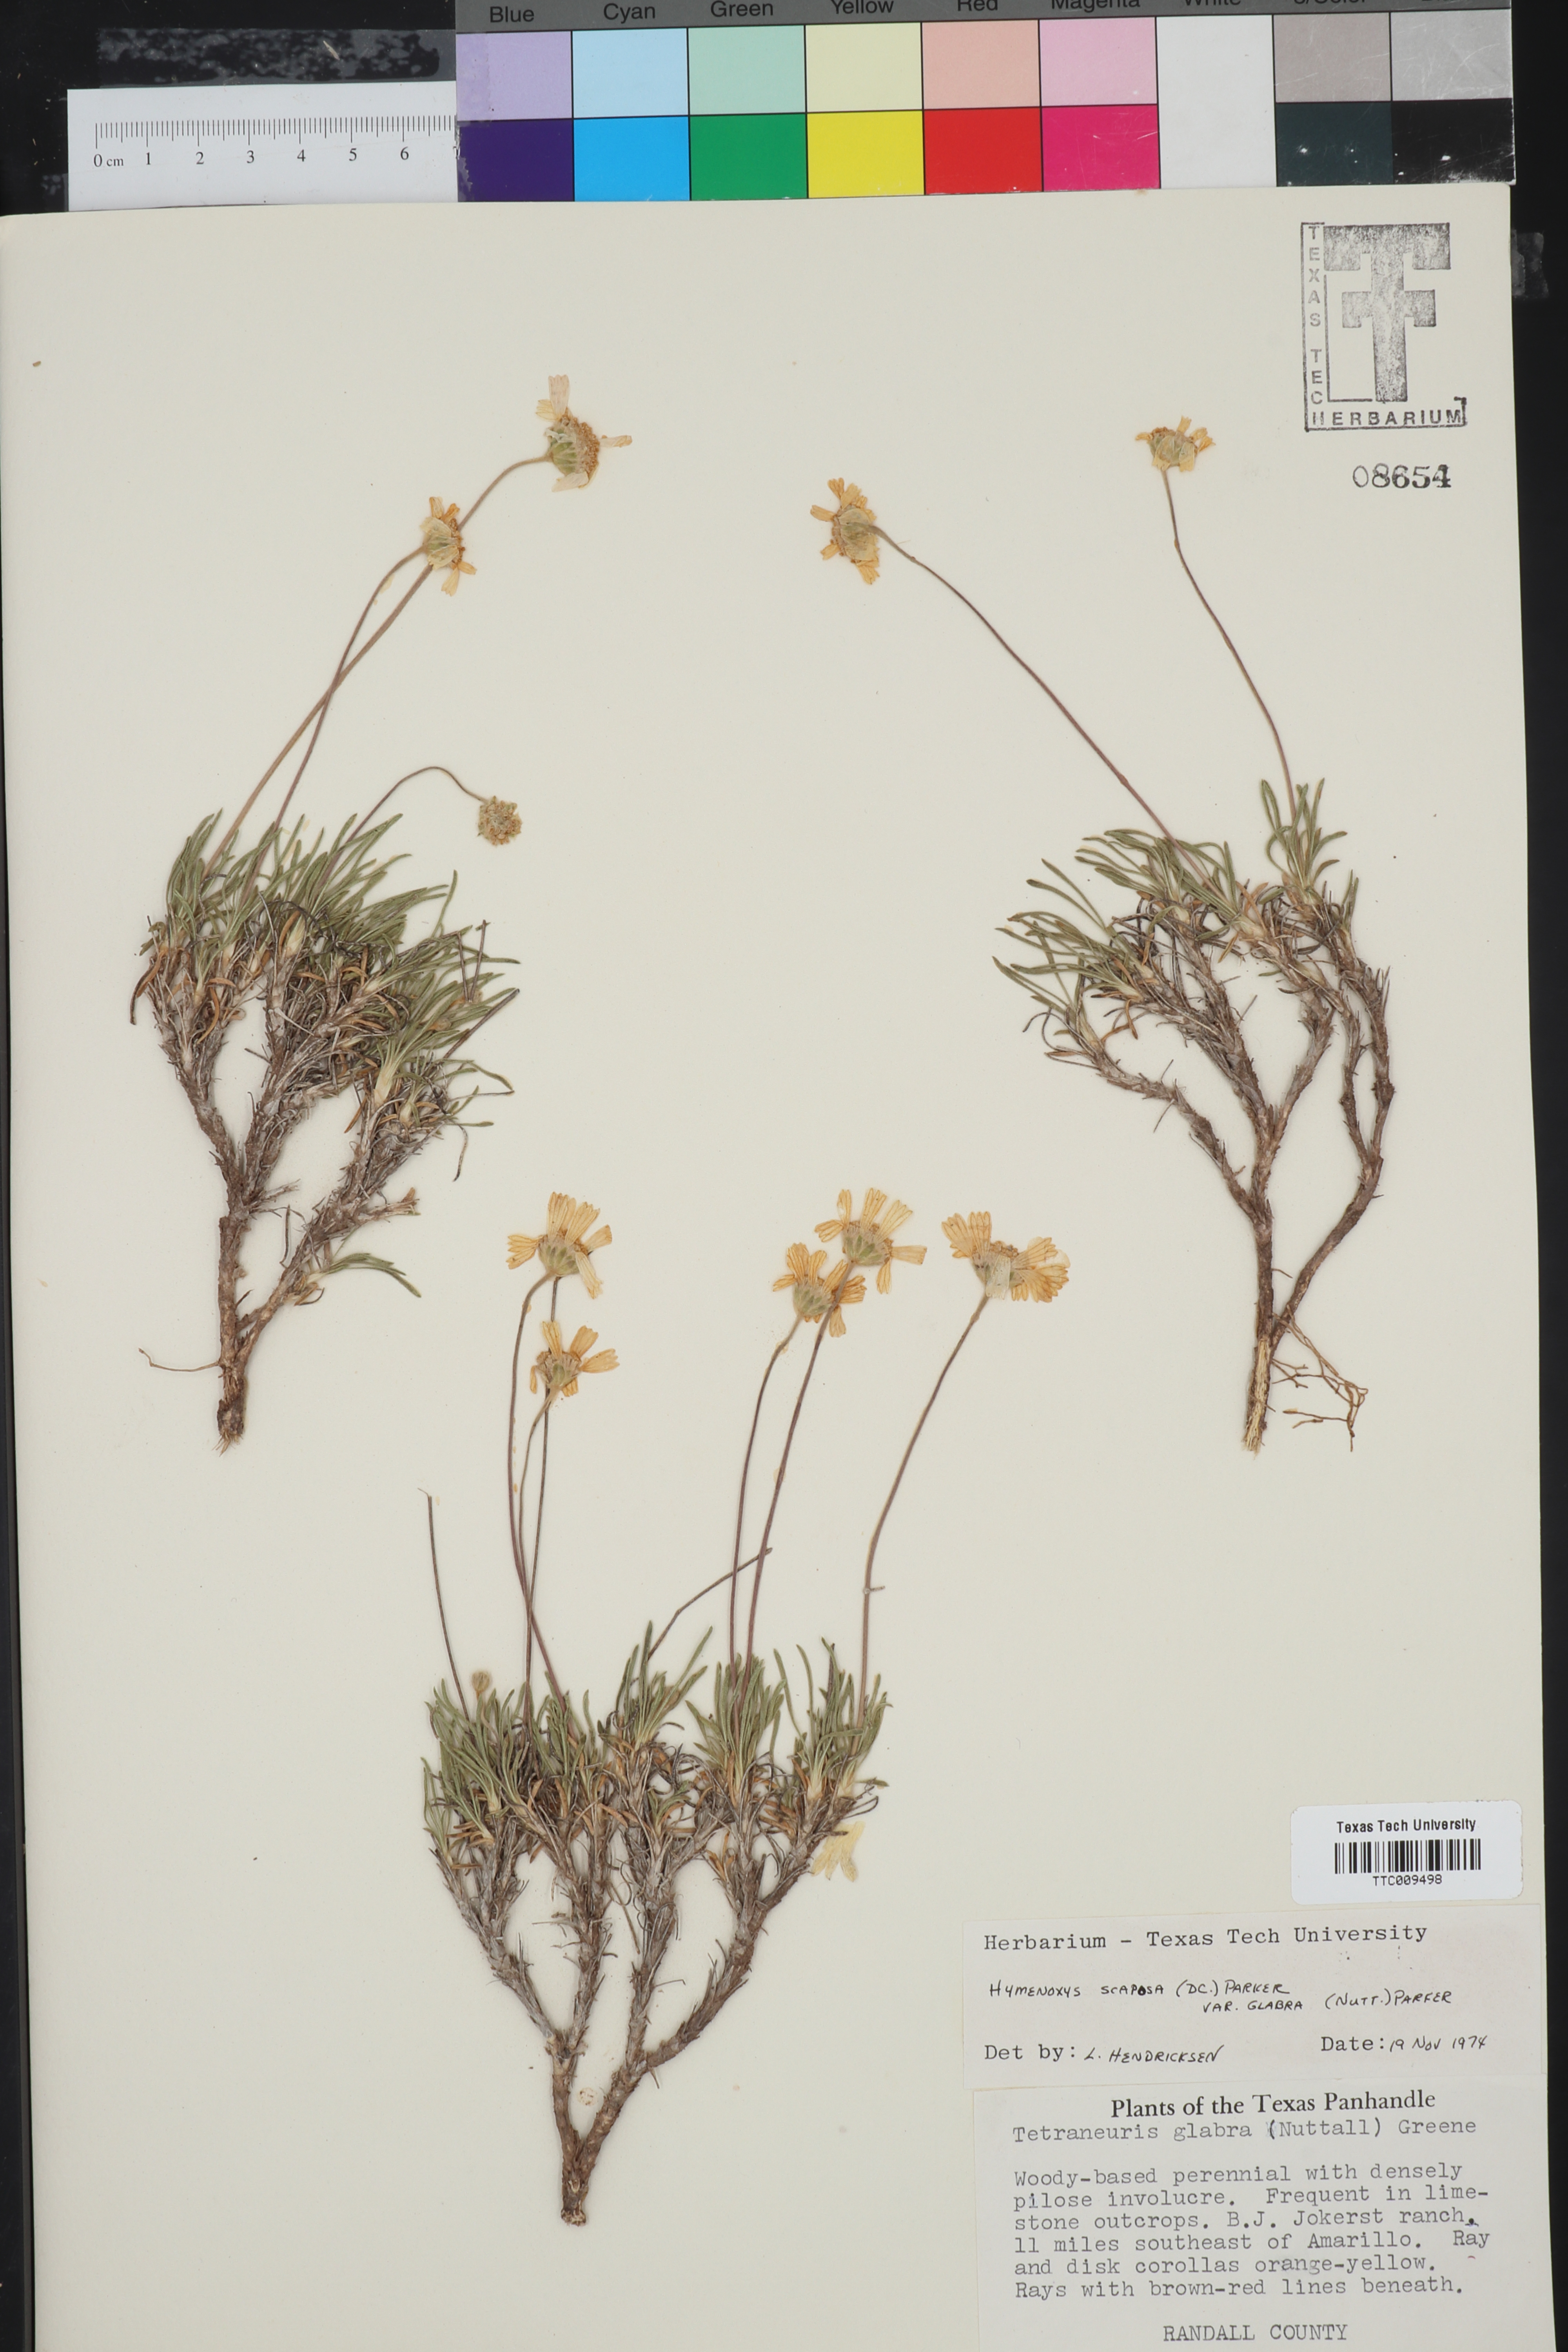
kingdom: Plantae
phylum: Tracheophyta
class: Magnoliopsida
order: Asterales
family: Asteraceae
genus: Tetraneuris
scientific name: Tetraneuris scaposa
